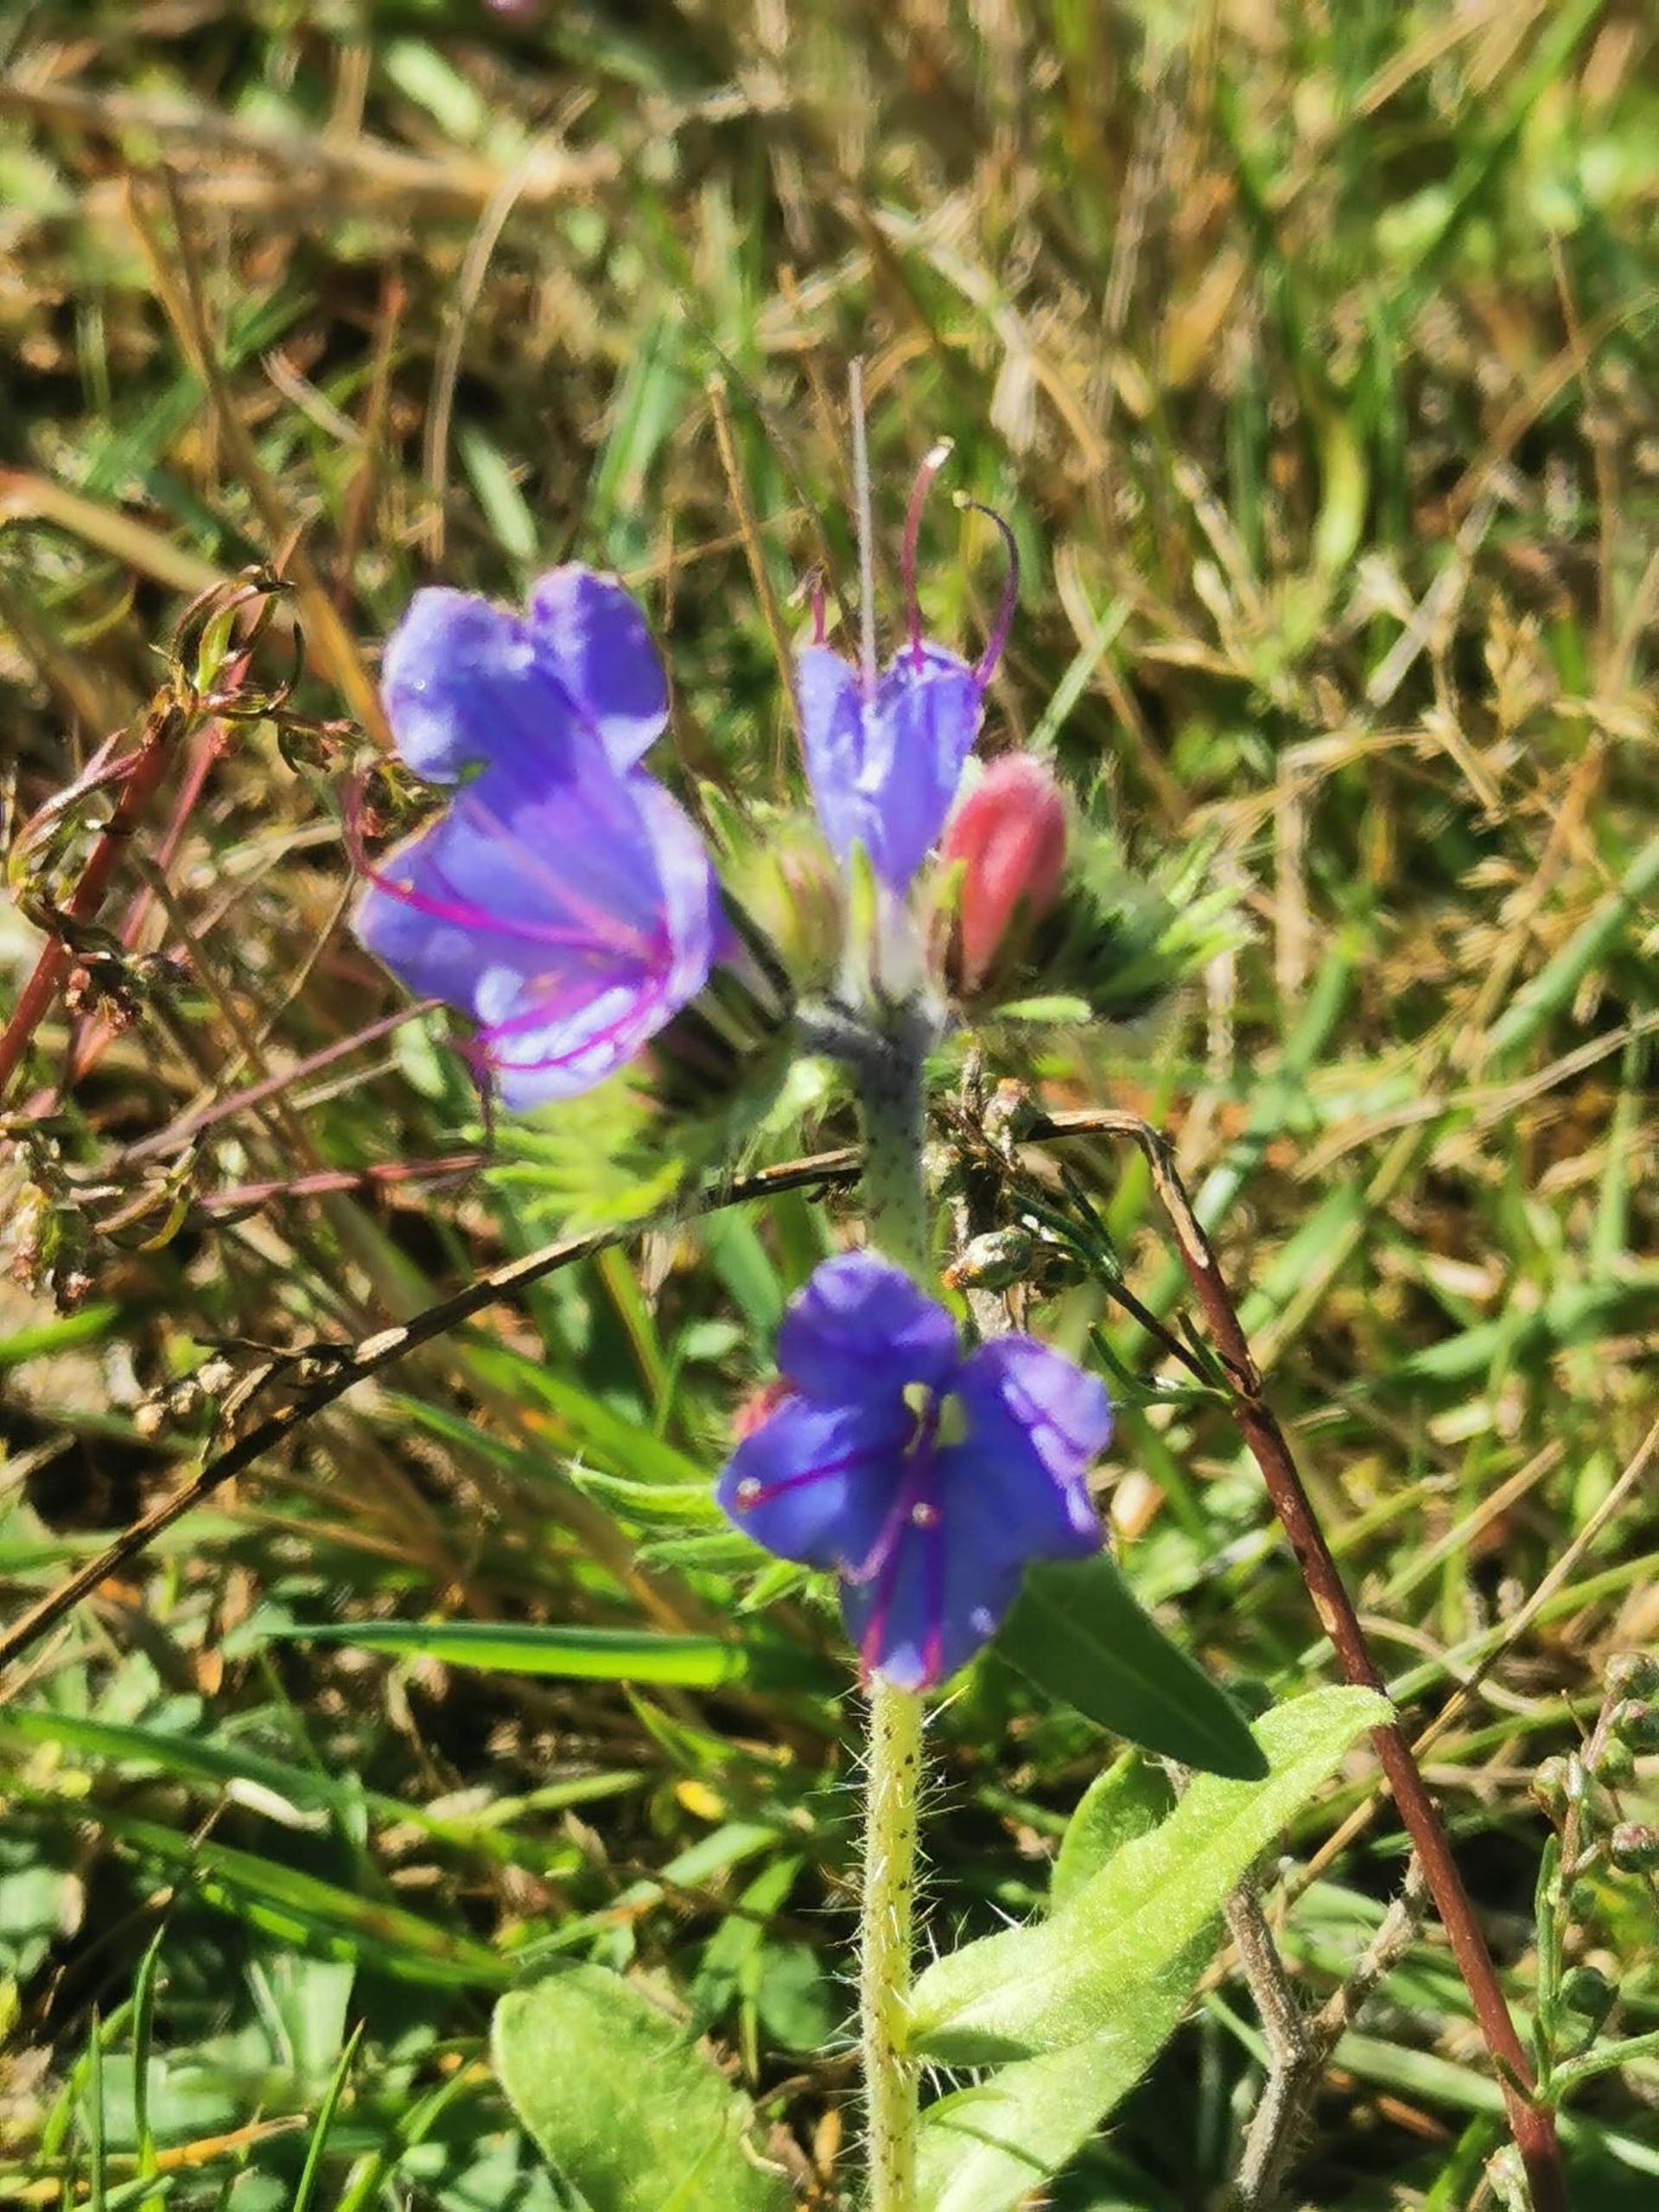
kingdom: Plantae
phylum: Tracheophyta
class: Magnoliopsida
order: Boraginales
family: Boraginaceae
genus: Echium
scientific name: Echium vulgare
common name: Slangehoved
